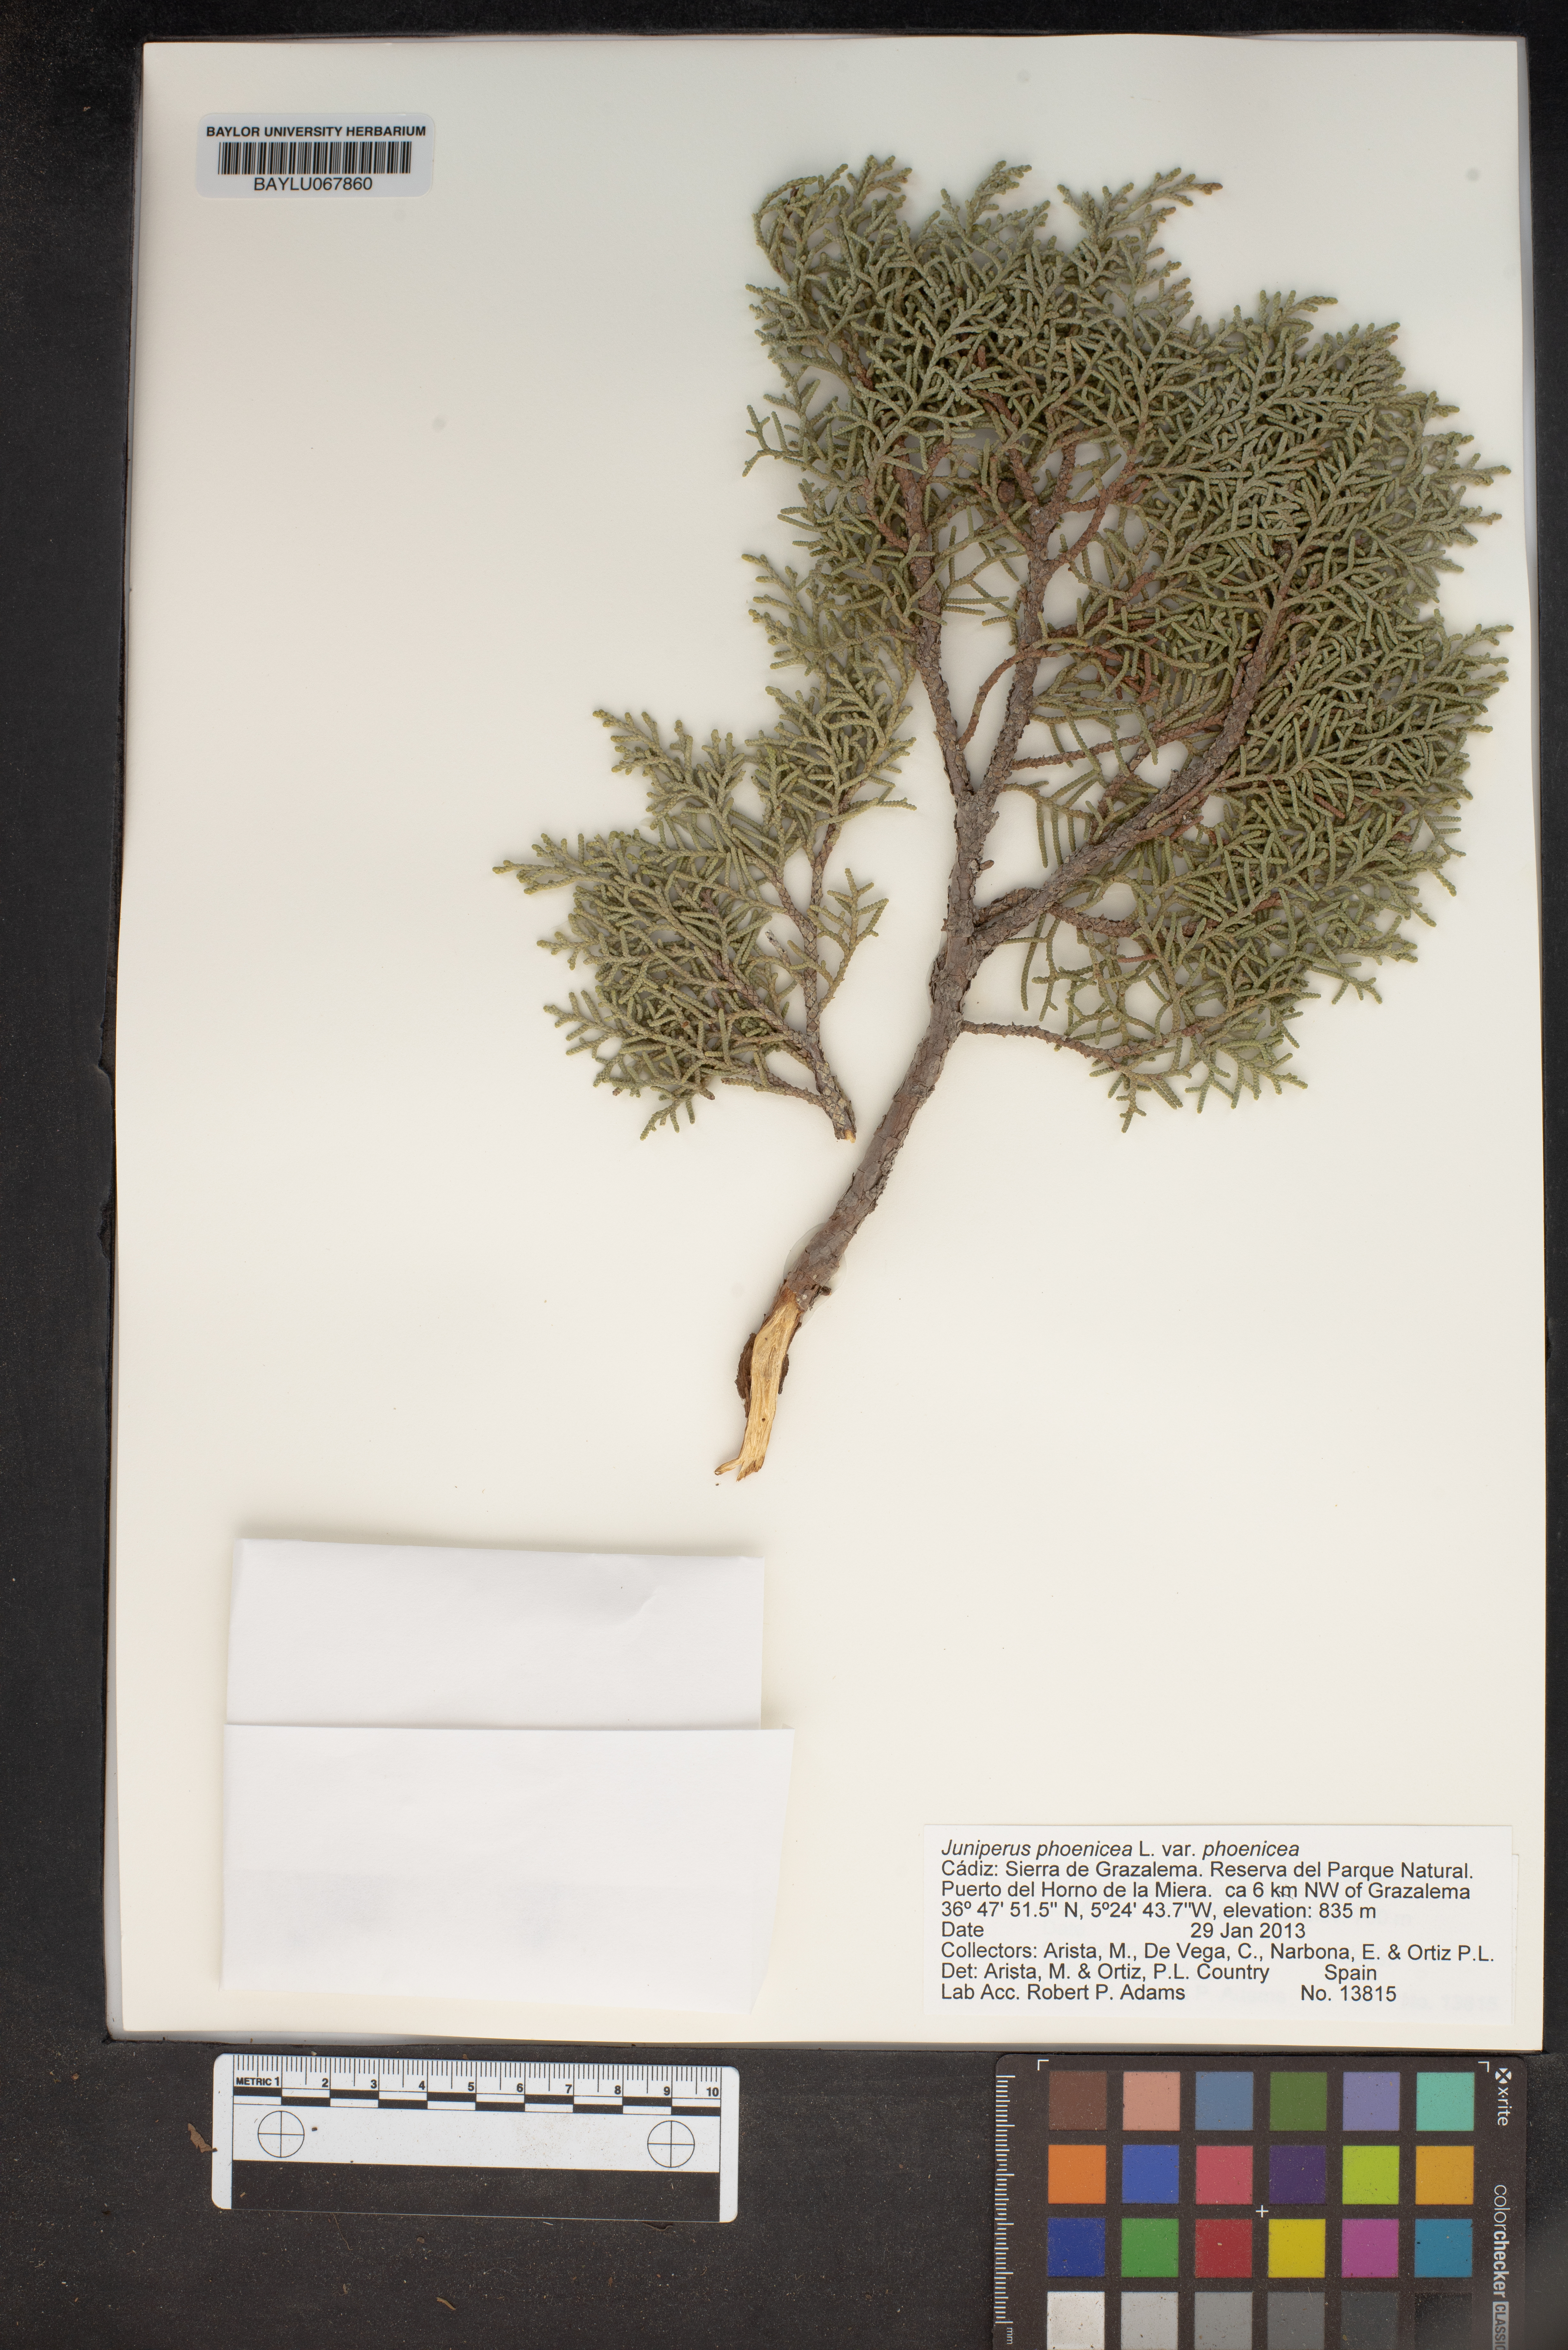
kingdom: Plantae
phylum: Tracheophyta
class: Pinopsida
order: Pinales
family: Cupressaceae
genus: Juniperus
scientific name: Juniperus phoenicea
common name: Phoenician juniper
